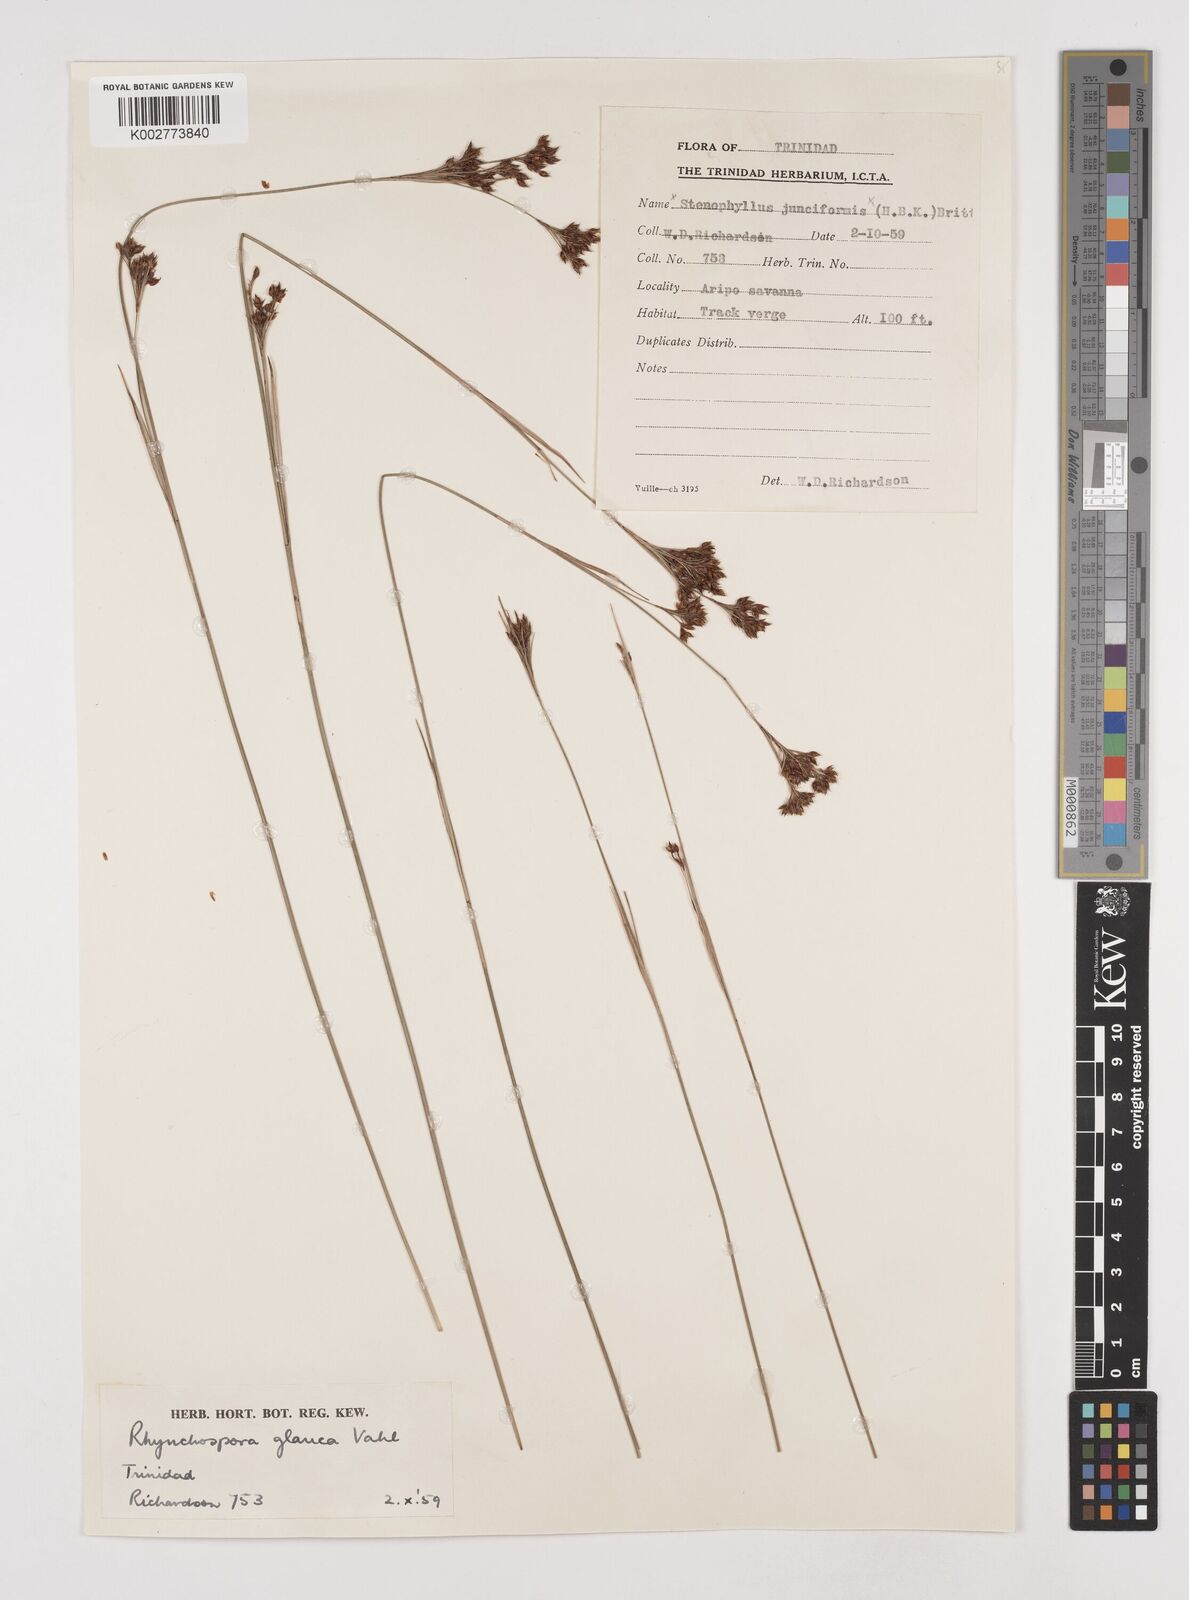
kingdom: Plantae
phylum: Tracheophyta
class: Liliopsida
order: Poales
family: Cyperaceae
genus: Rhynchospora
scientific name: Rhynchospora rugosa
